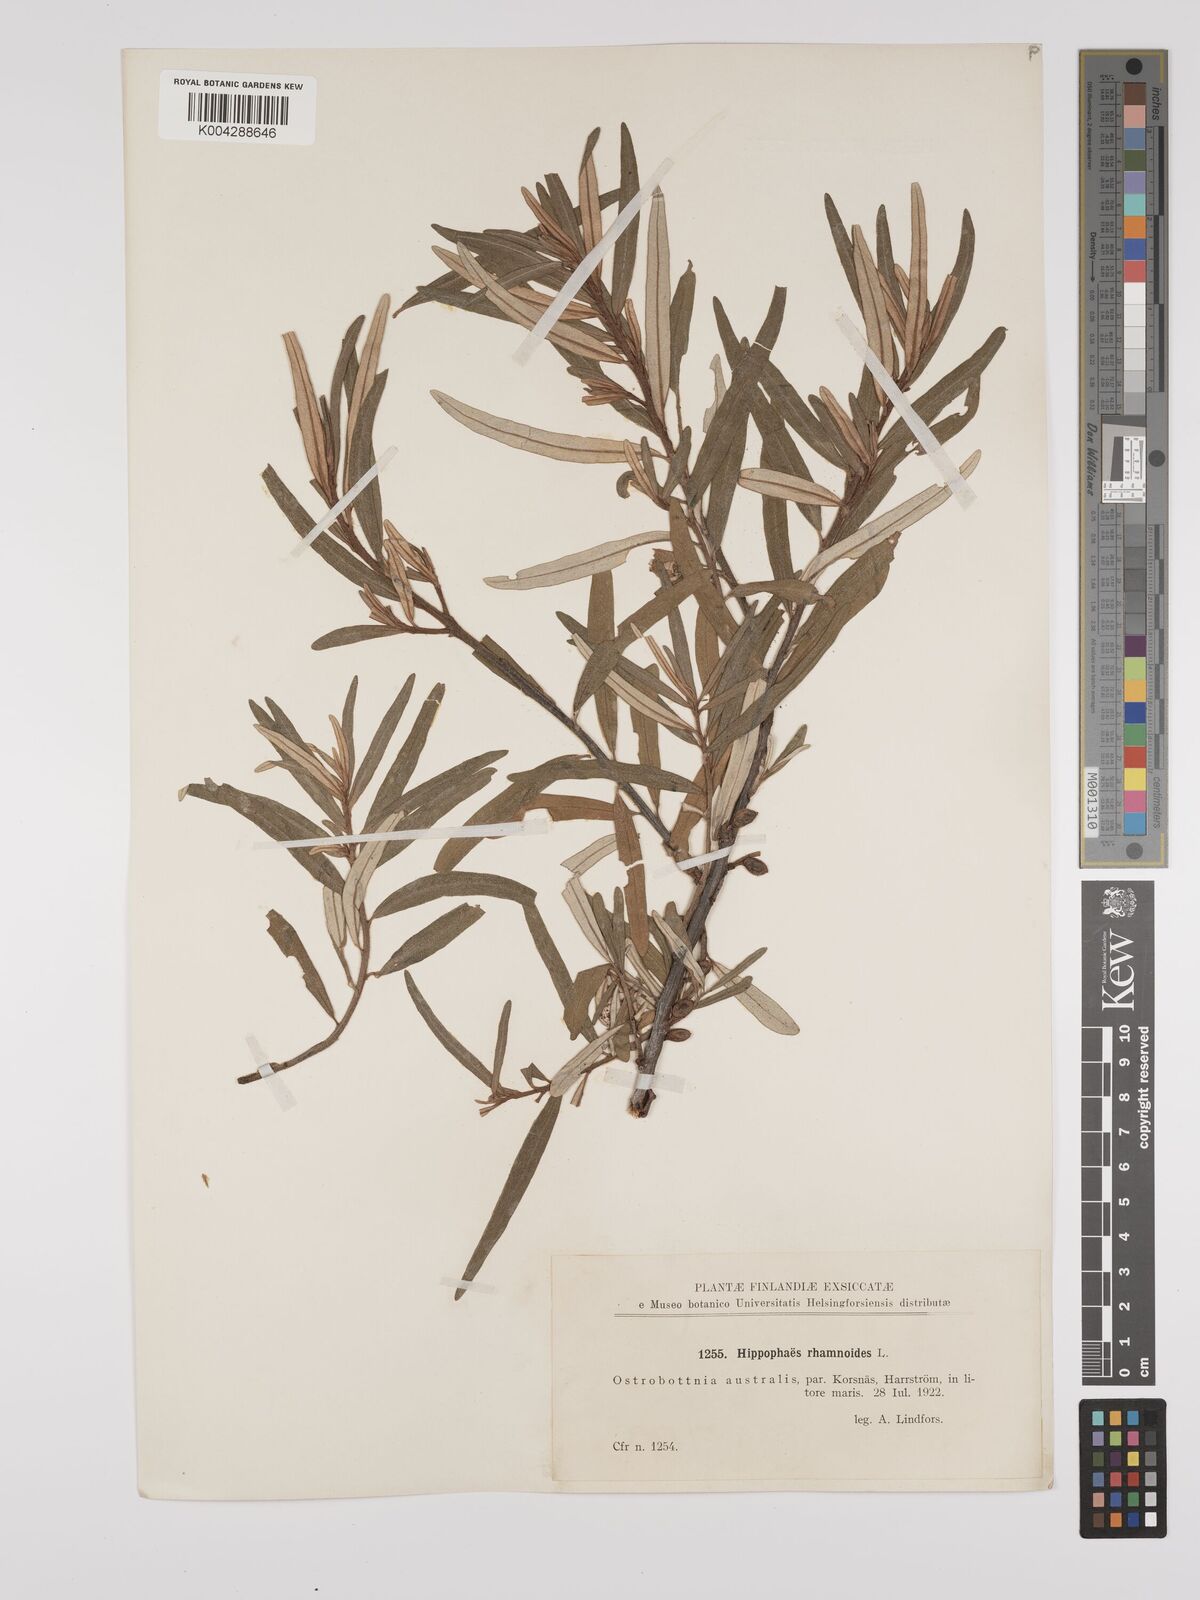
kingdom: Plantae
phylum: Tracheophyta
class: Magnoliopsida
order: Rosales
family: Elaeagnaceae
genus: Hippophae
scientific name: Hippophae rhamnoides
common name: Sea-buckthorn
